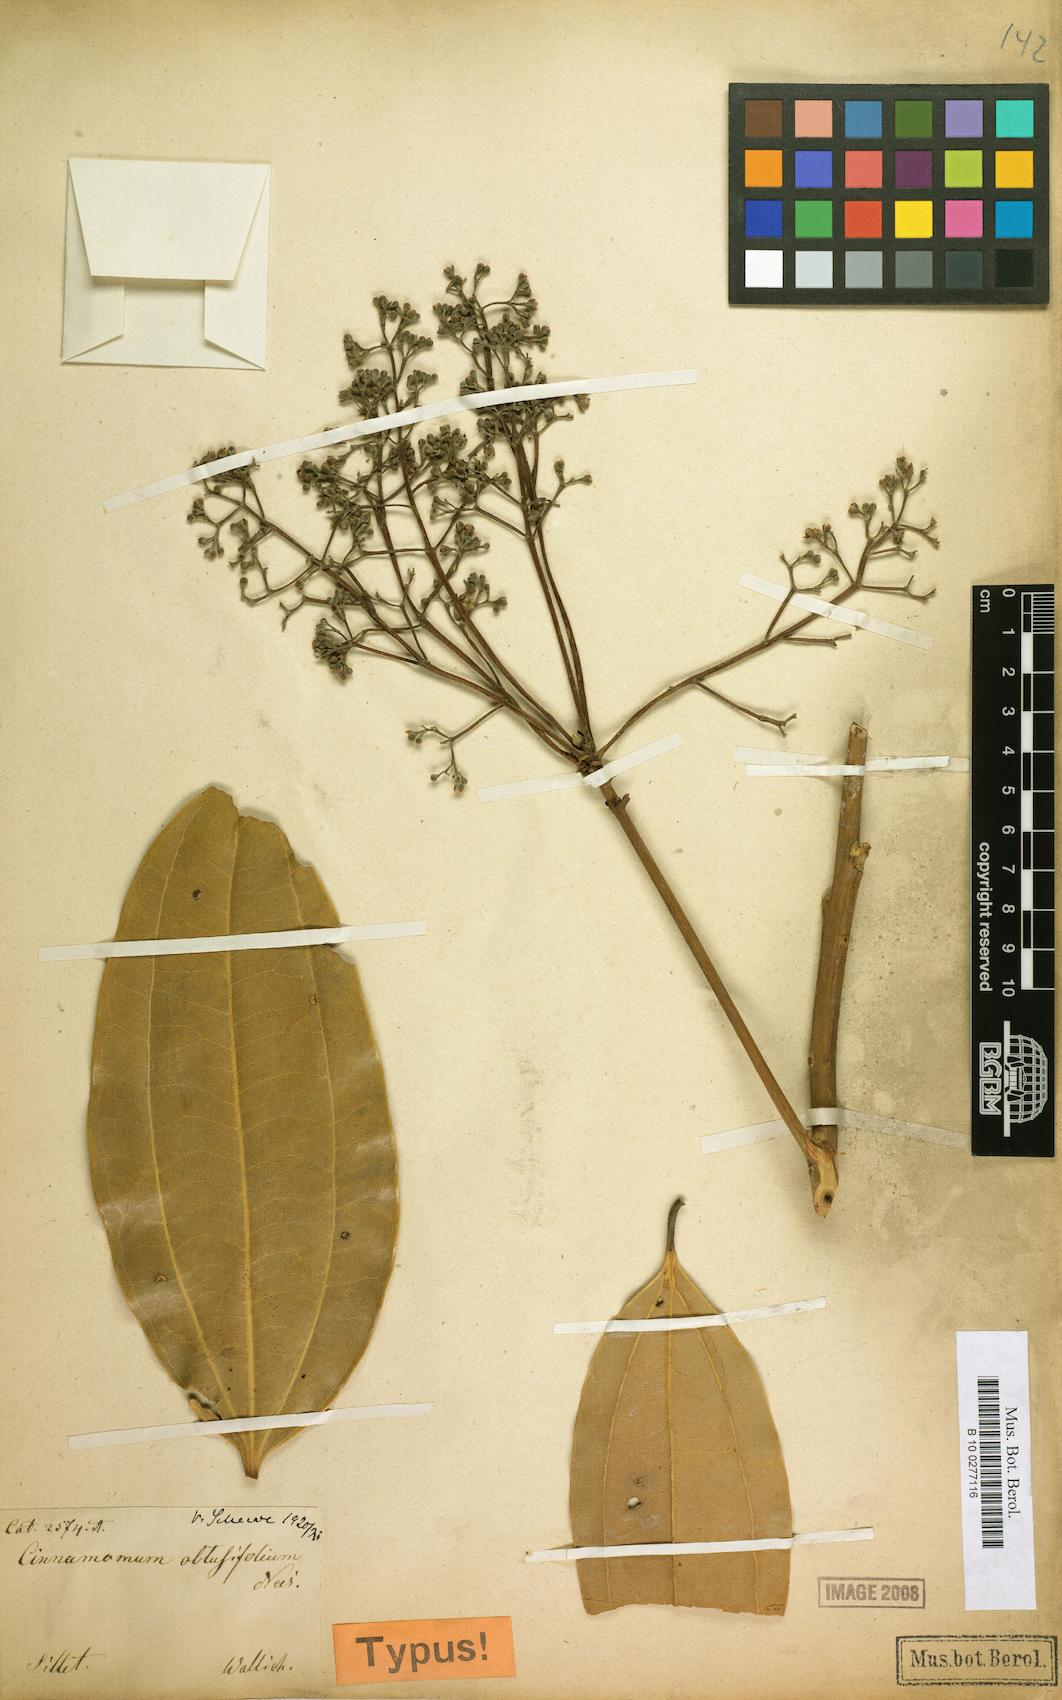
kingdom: Plantae
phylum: Tracheophyta
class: Magnoliopsida
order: Laurales
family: Lauraceae
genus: Cinnamomum
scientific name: Cinnamomum bejolghota
